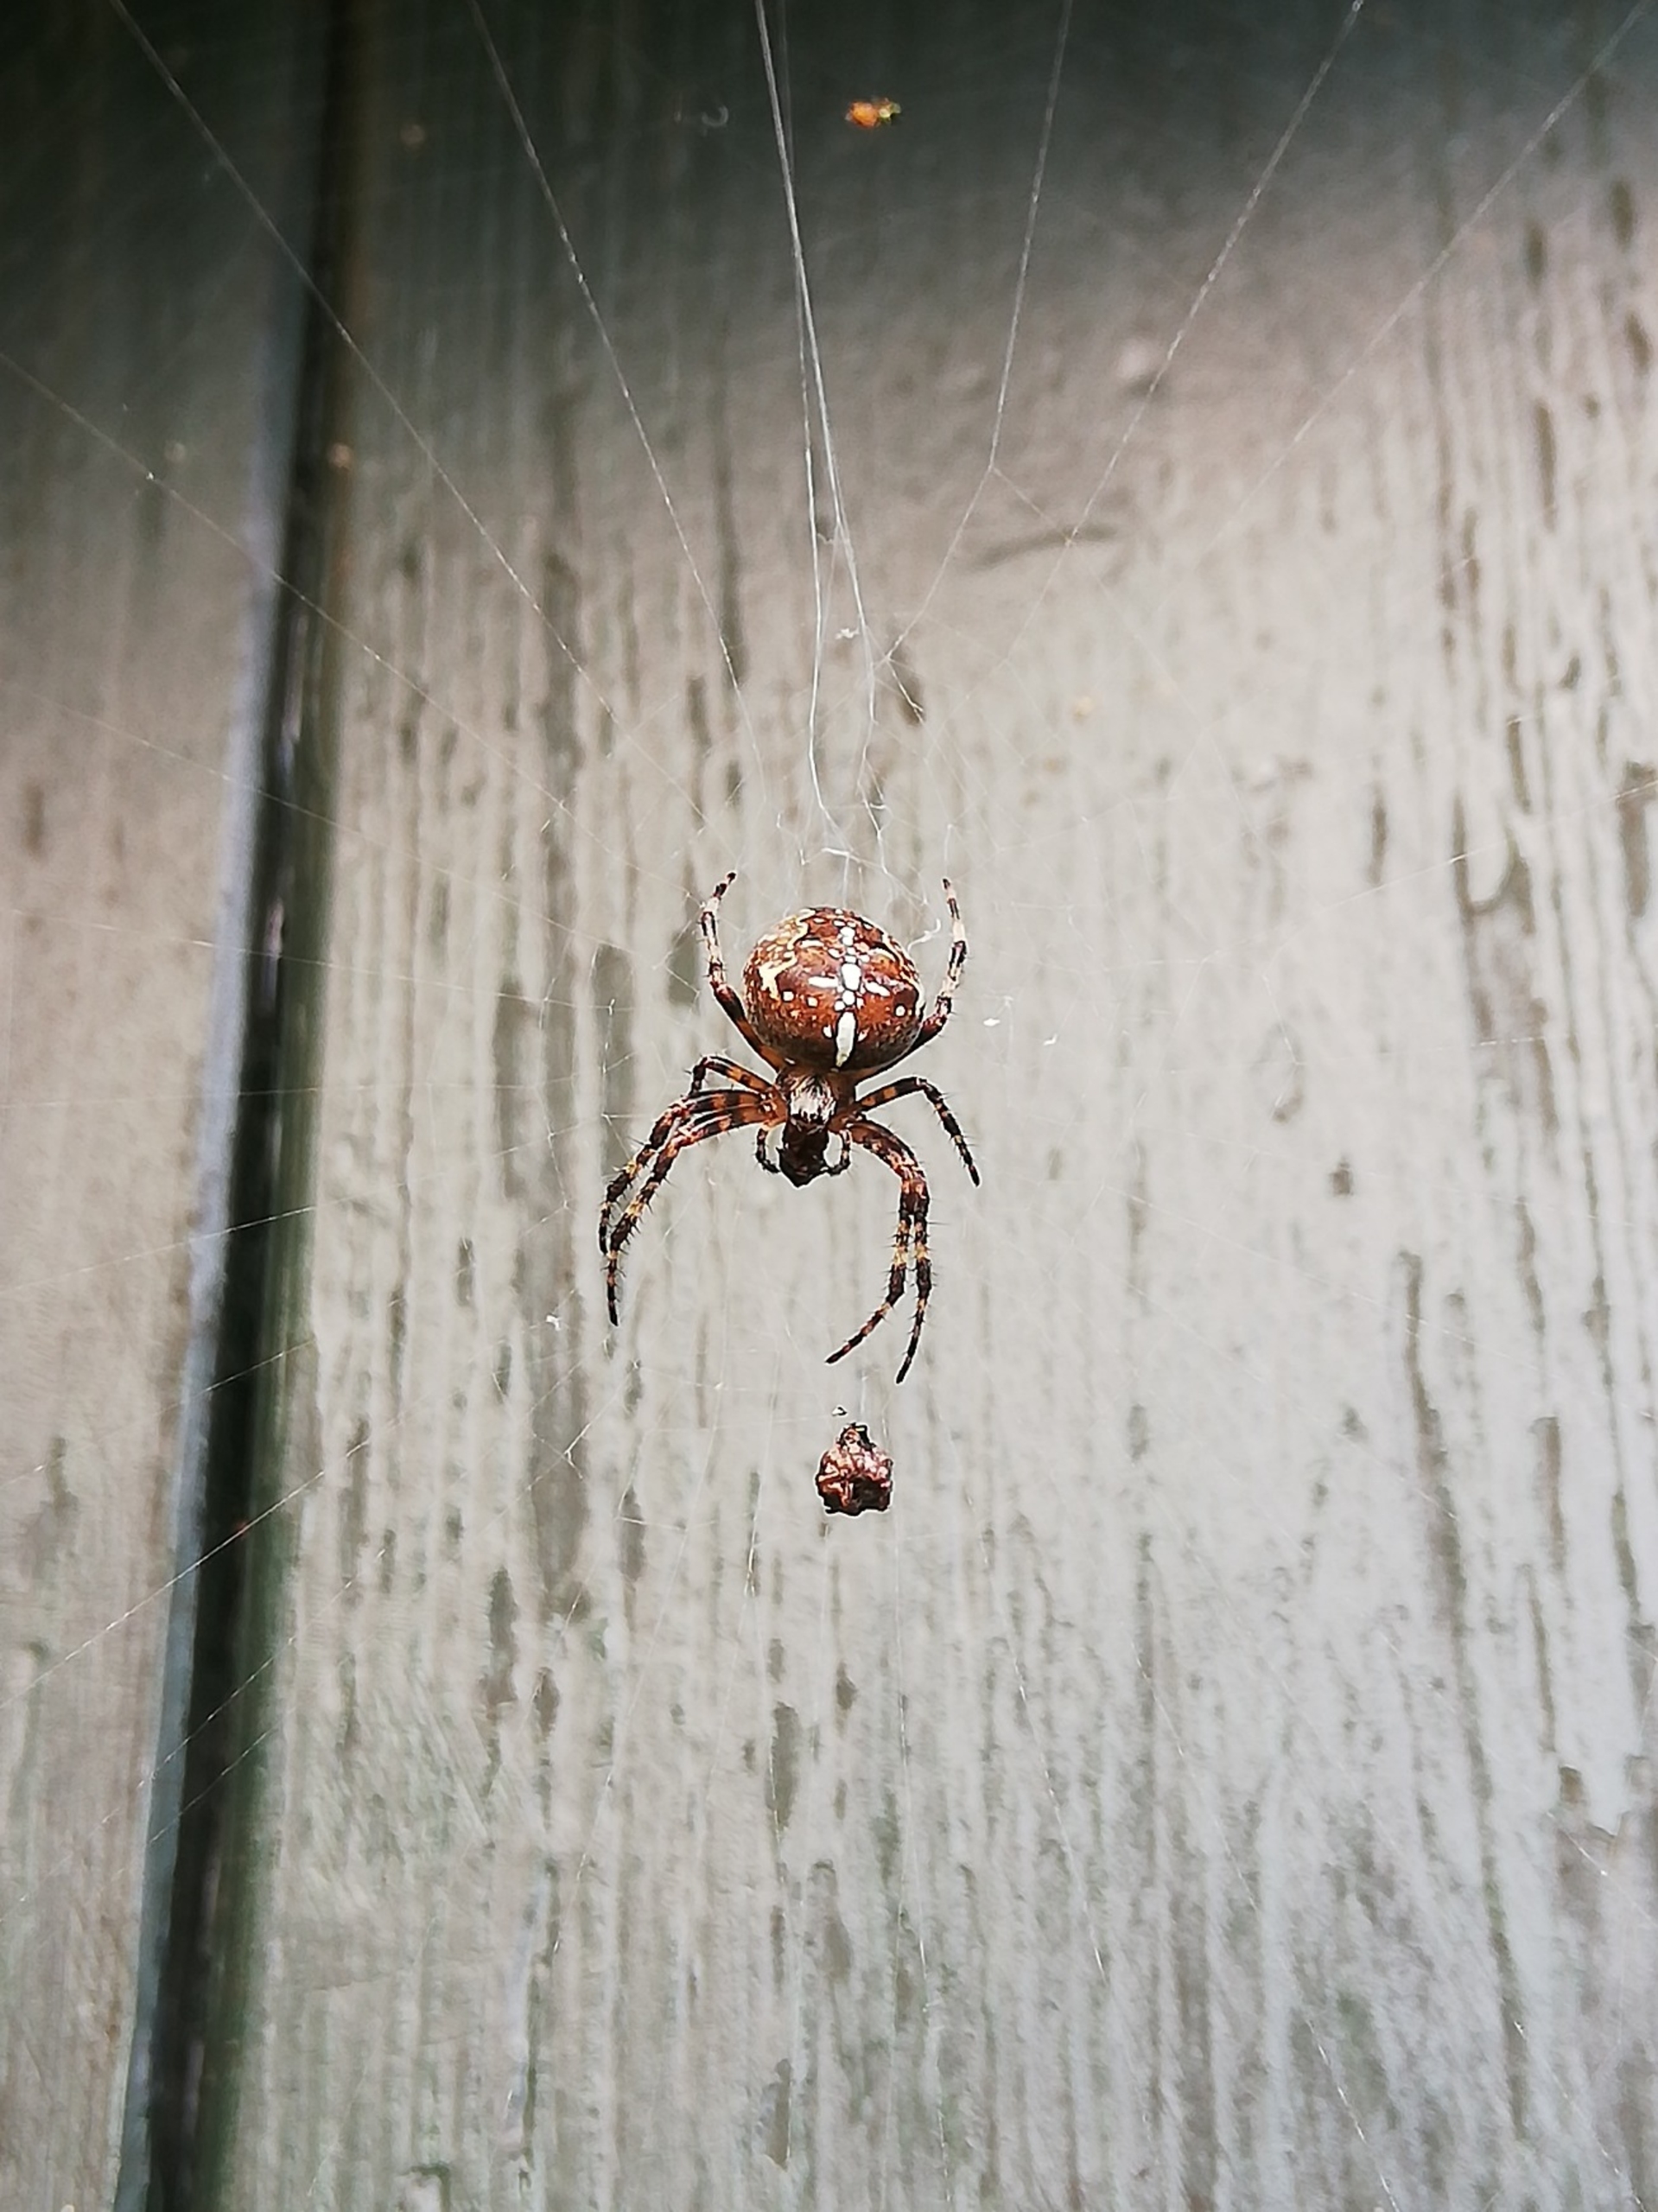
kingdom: Animalia
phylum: Arthropoda
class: Arachnida
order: Araneae
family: Araneidae
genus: Araneus
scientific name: Araneus diadematus
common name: Korsedderkop
